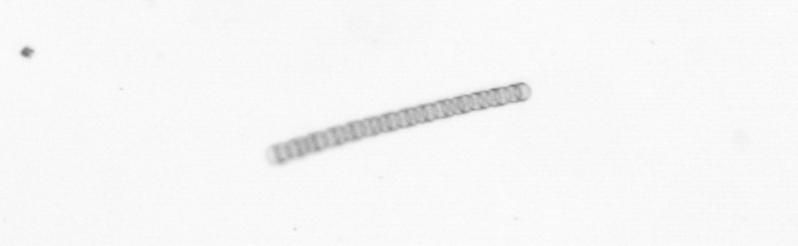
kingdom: Chromista
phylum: Ochrophyta
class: Bacillariophyceae
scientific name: Bacillariophyceae
